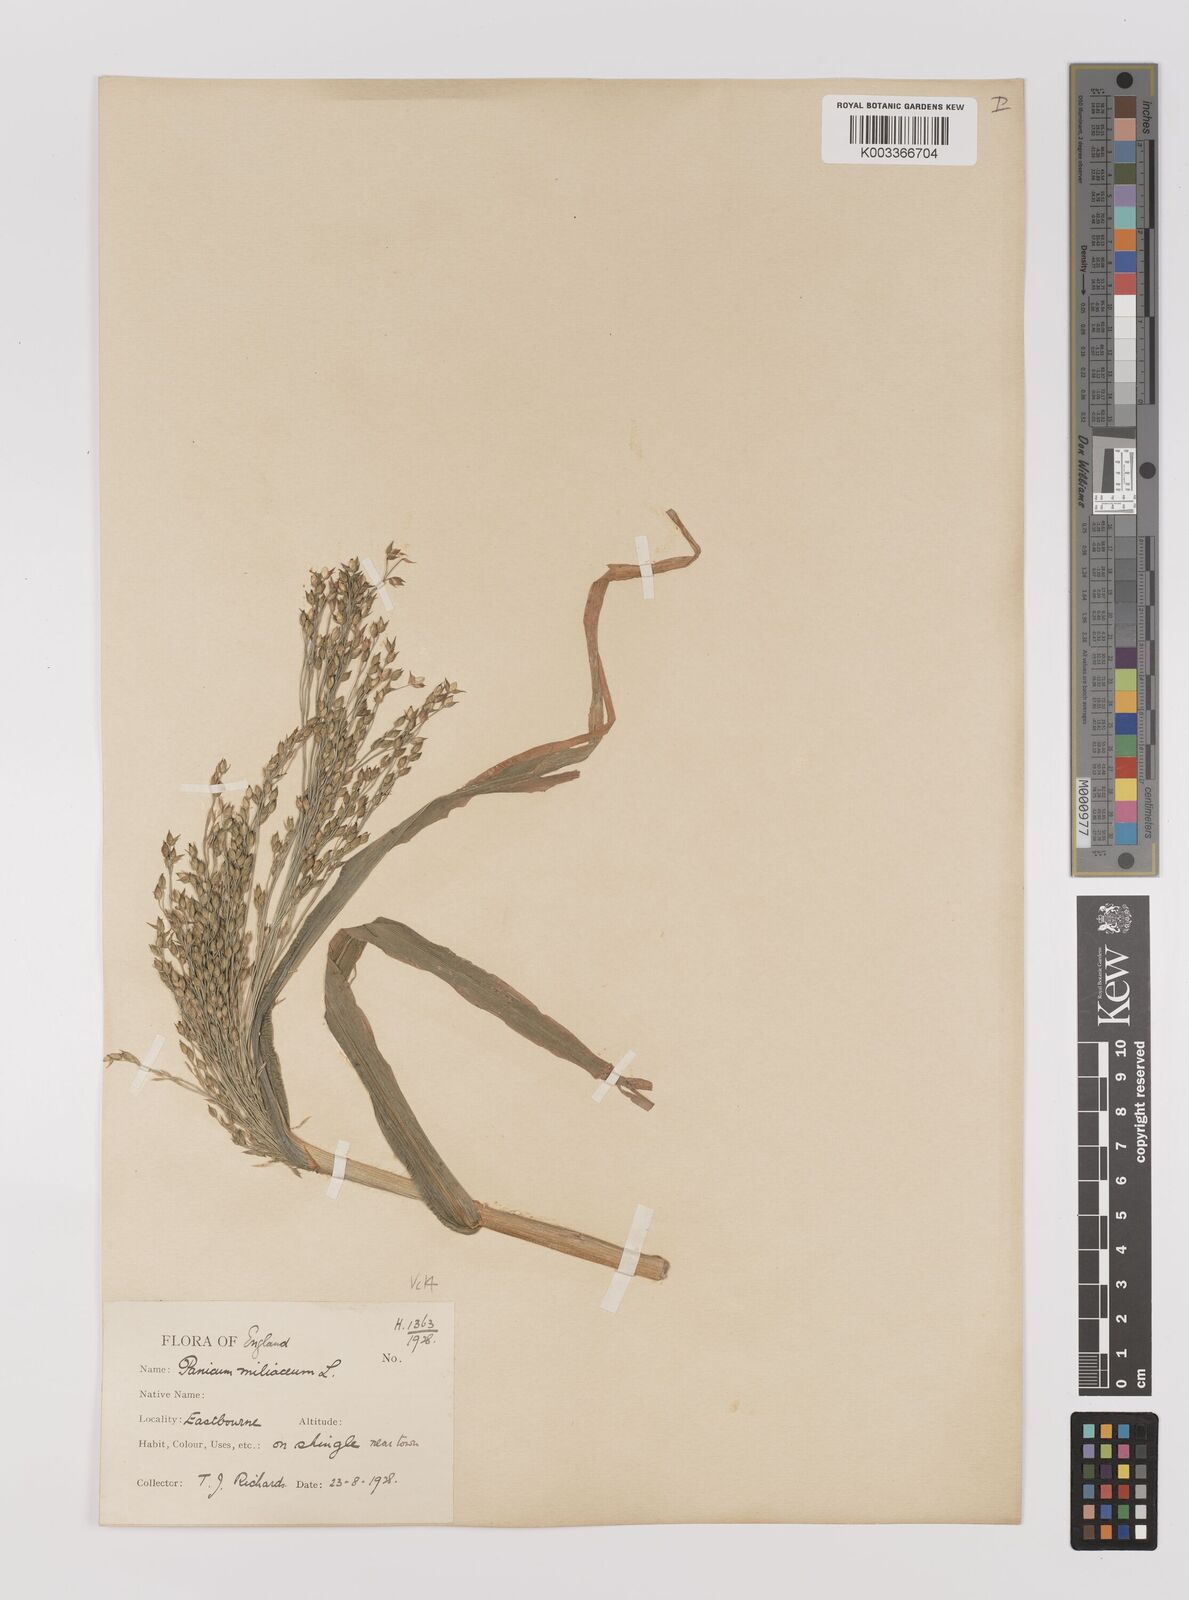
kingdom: Plantae
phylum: Tracheophyta
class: Liliopsida
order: Poales
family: Poaceae
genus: Panicum
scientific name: Panicum miliaceum
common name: Common millet
